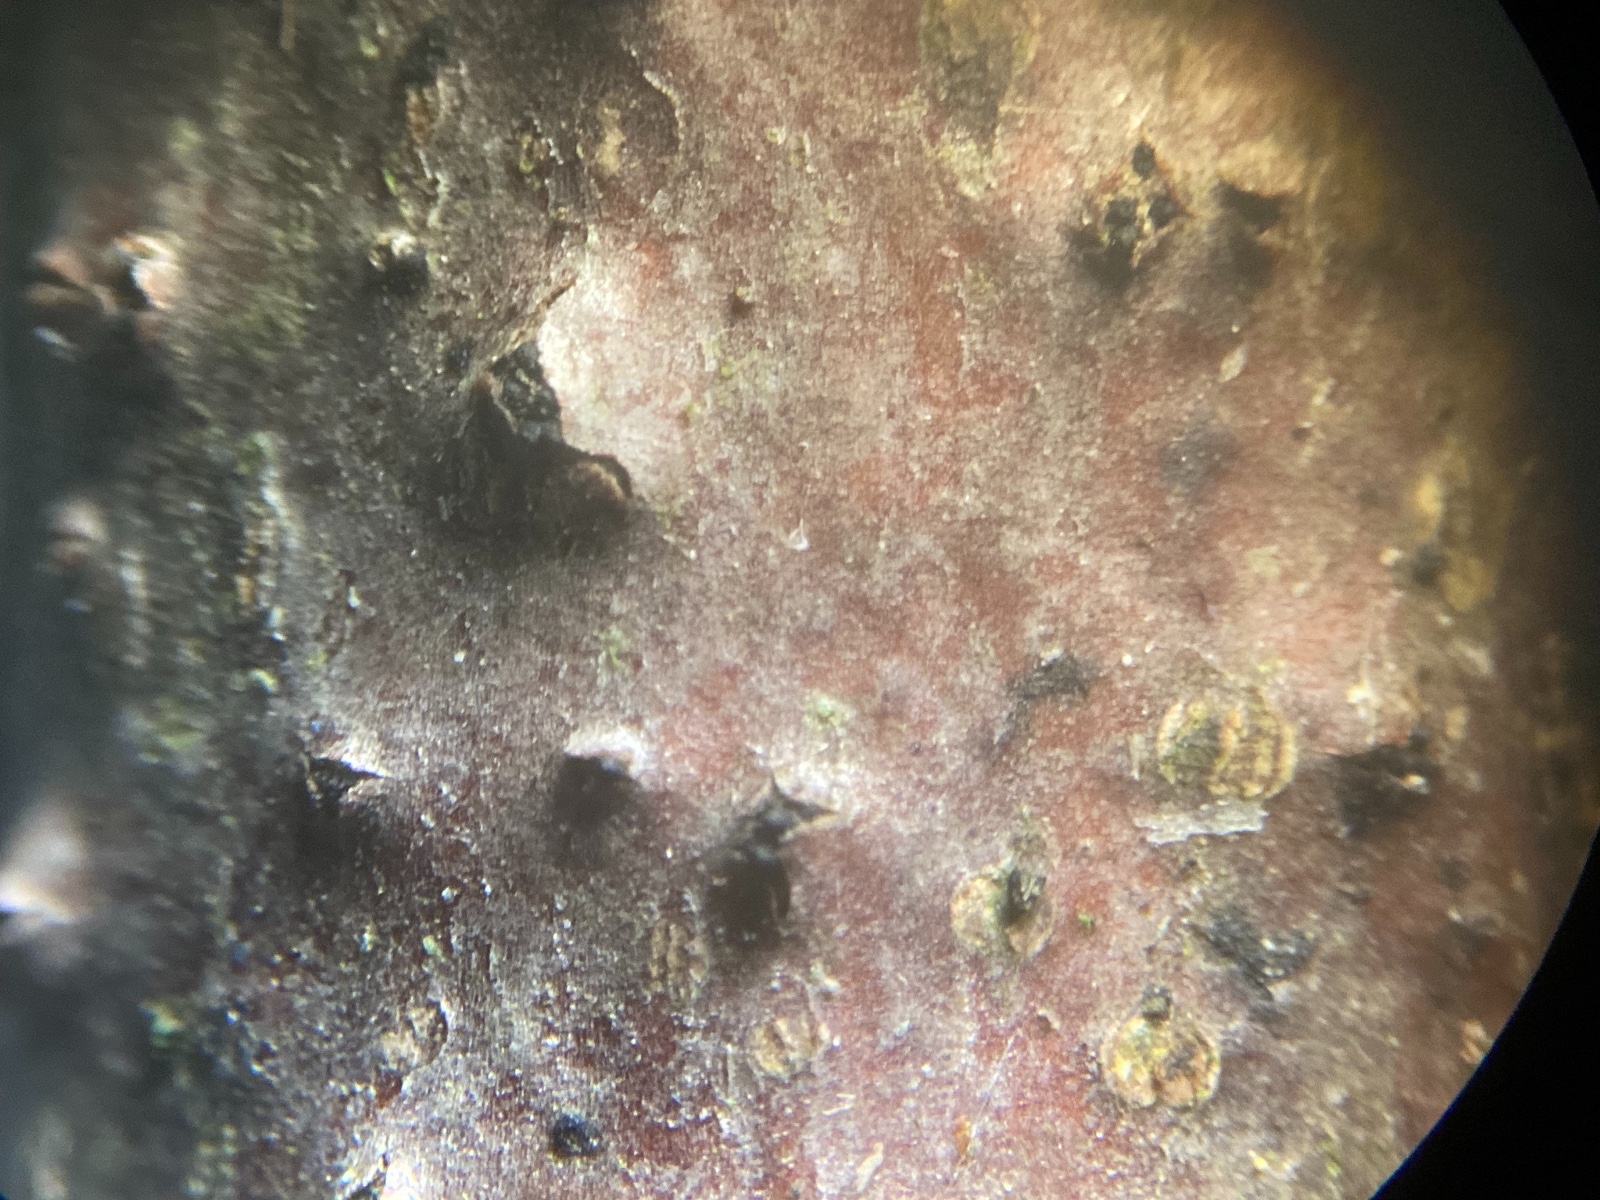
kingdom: Fungi
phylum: Ascomycota
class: Sordariomycetes
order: Diaporthales
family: Melanconidaceae
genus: Prosthecium
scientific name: Prosthecium platanoidis
